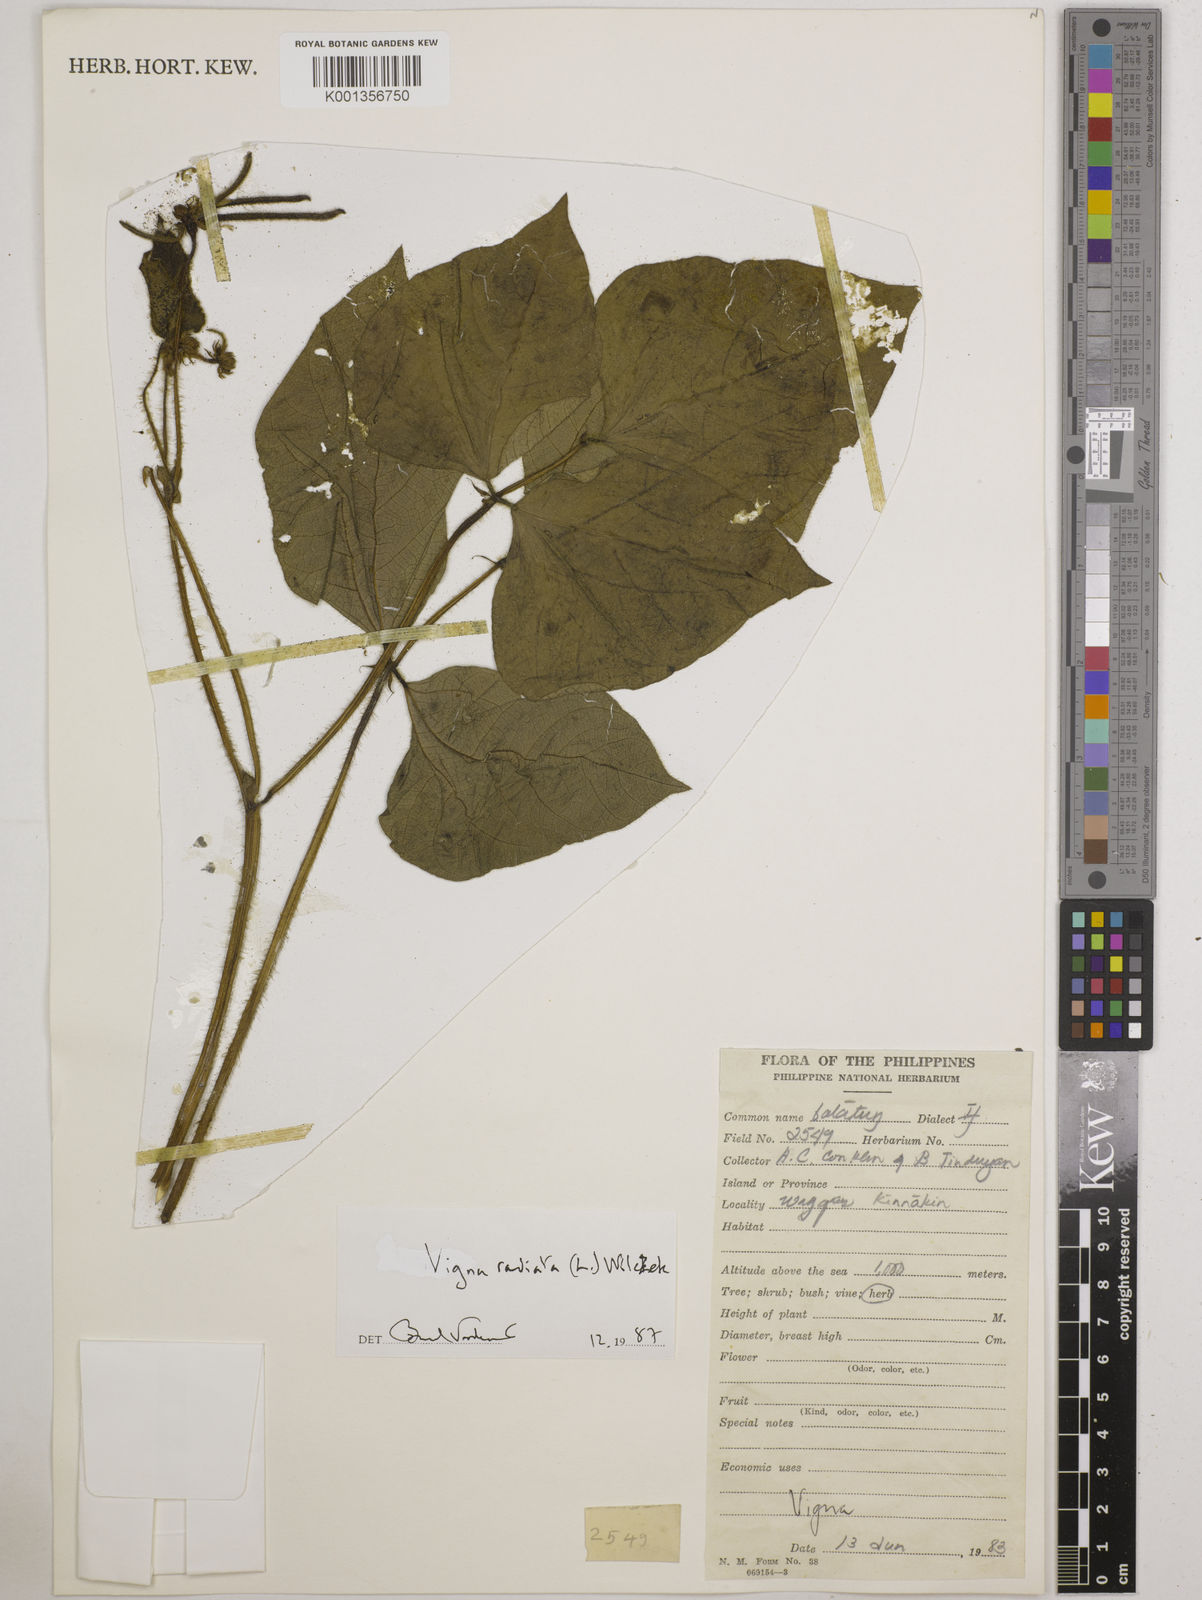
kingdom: Plantae
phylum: Tracheophyta
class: Magnoliopsida
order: Fabales
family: Fabaceae
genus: Vigna
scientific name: Vigna radiata
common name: Mung-bean
